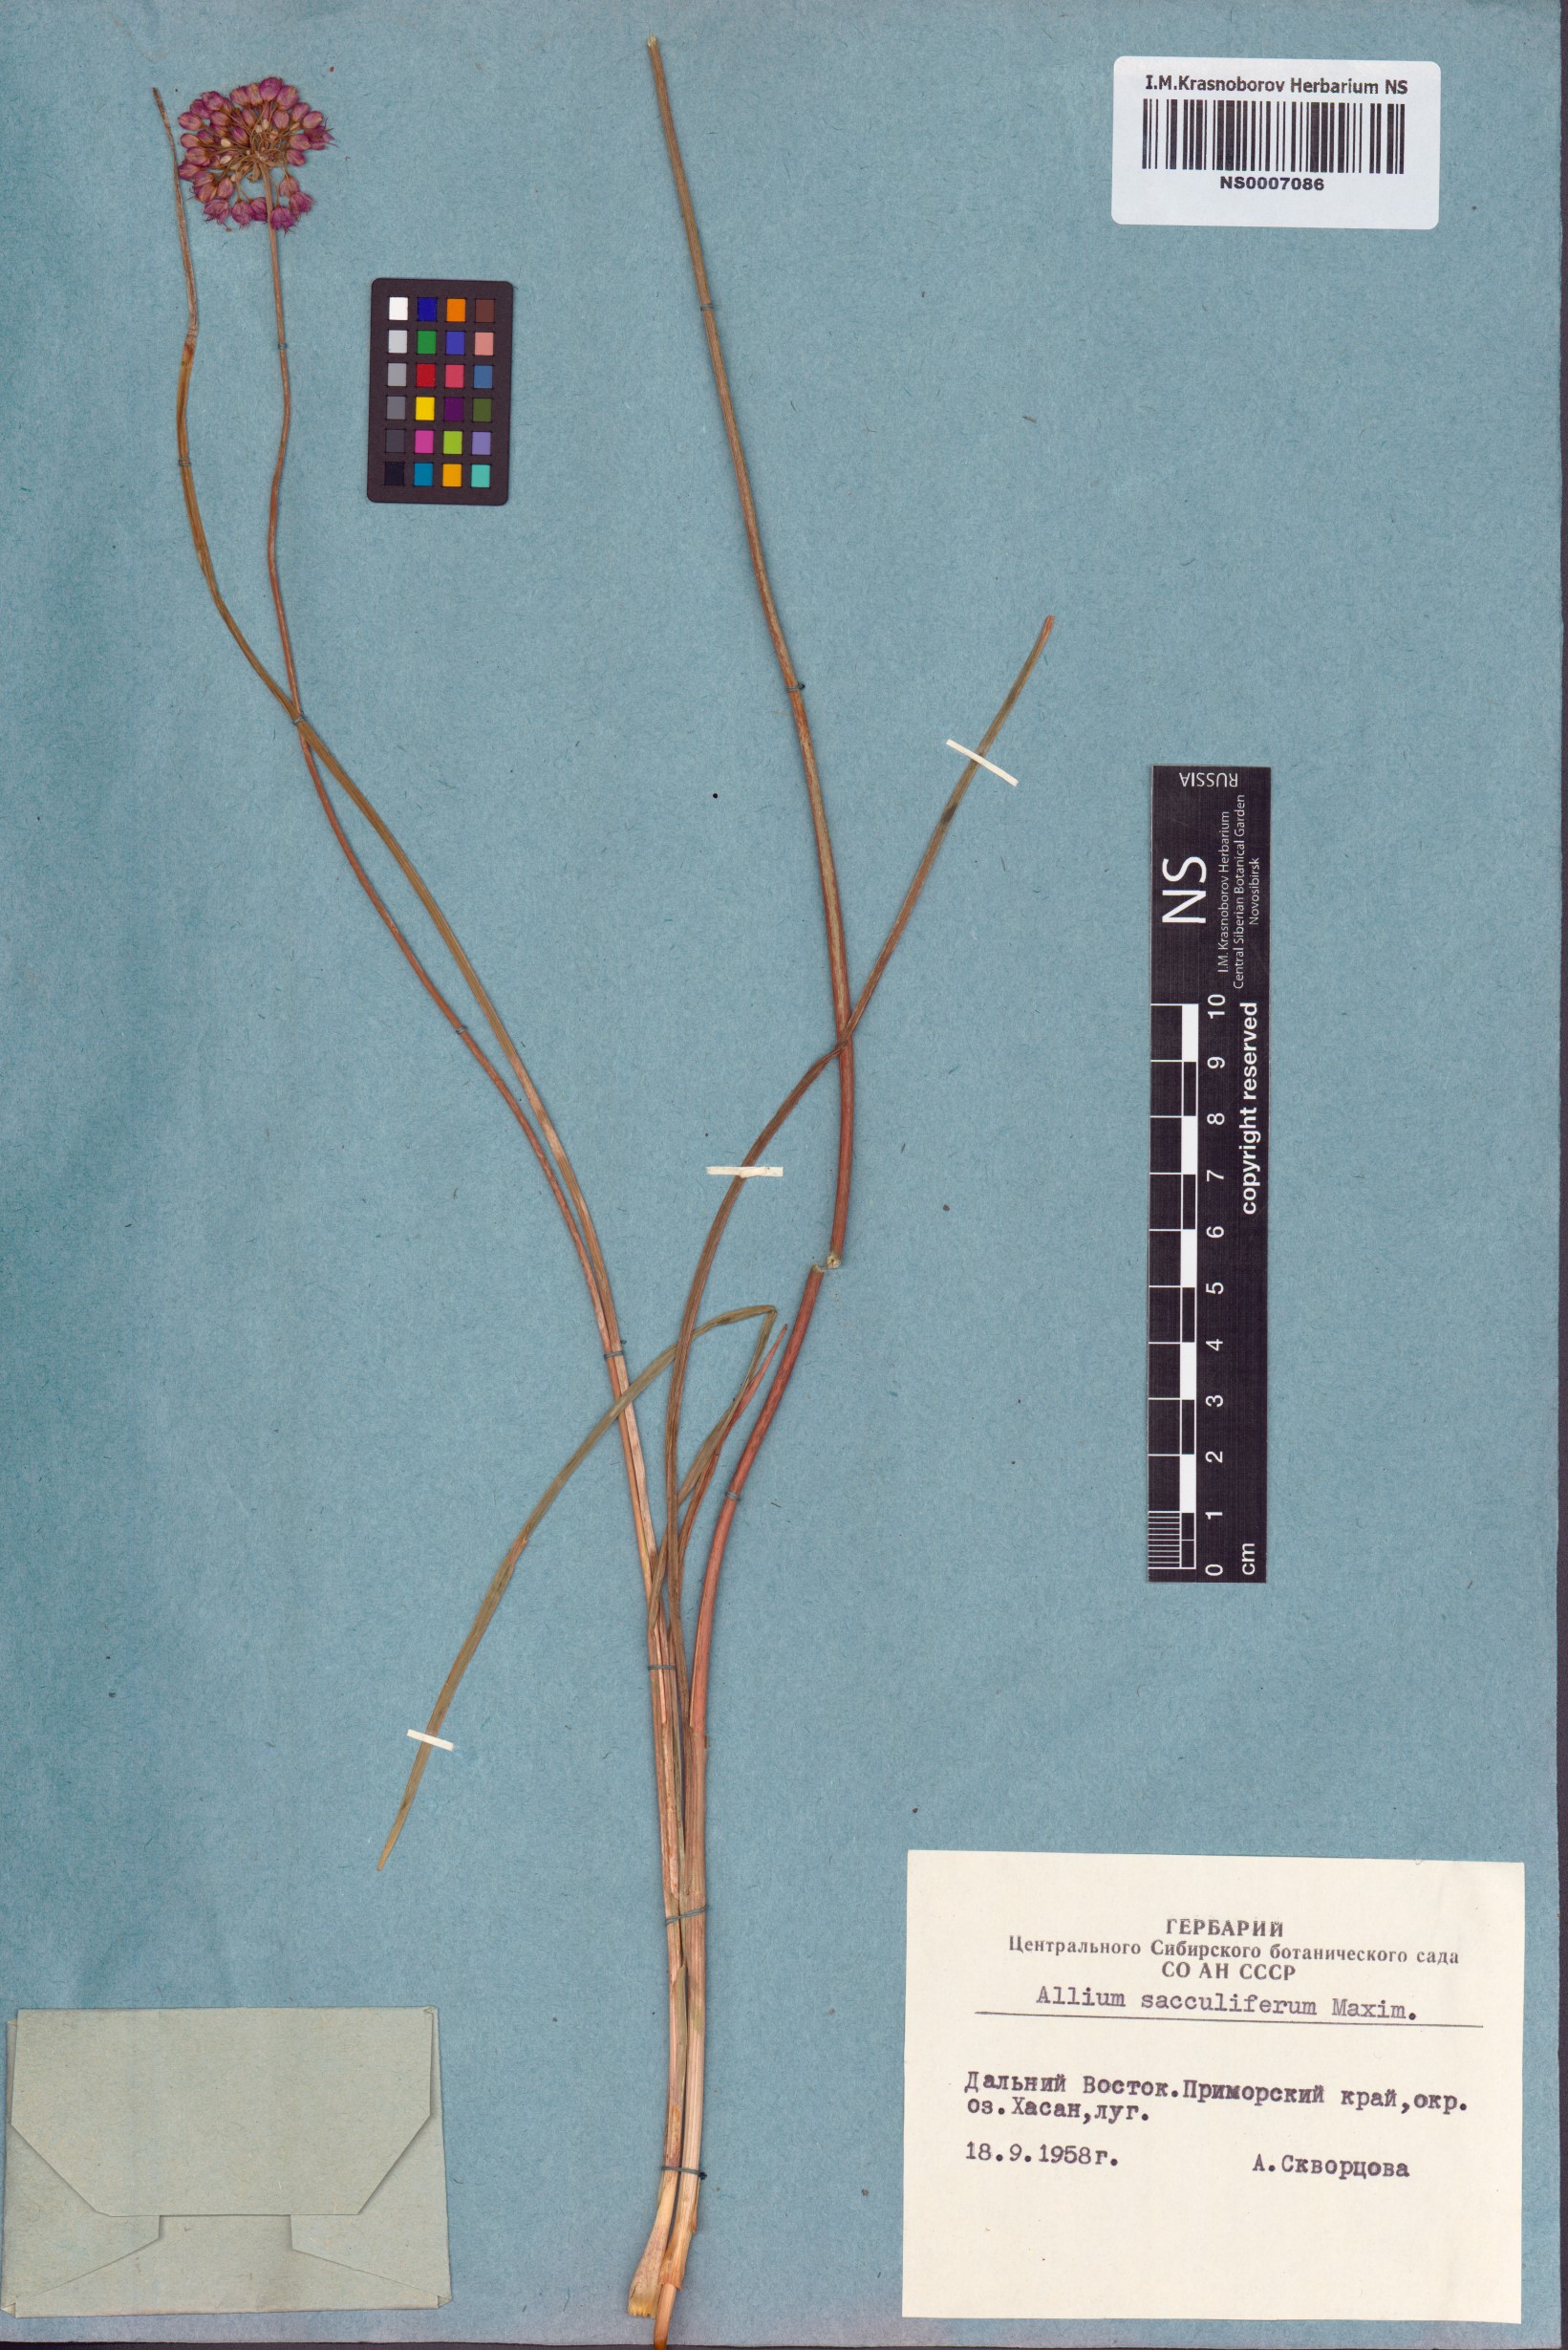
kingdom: Plantae
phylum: Tracheophyta
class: Liliopsida
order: Asparagales
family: Amaryllidaceae
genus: Allium
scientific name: Allium sacculiferum
